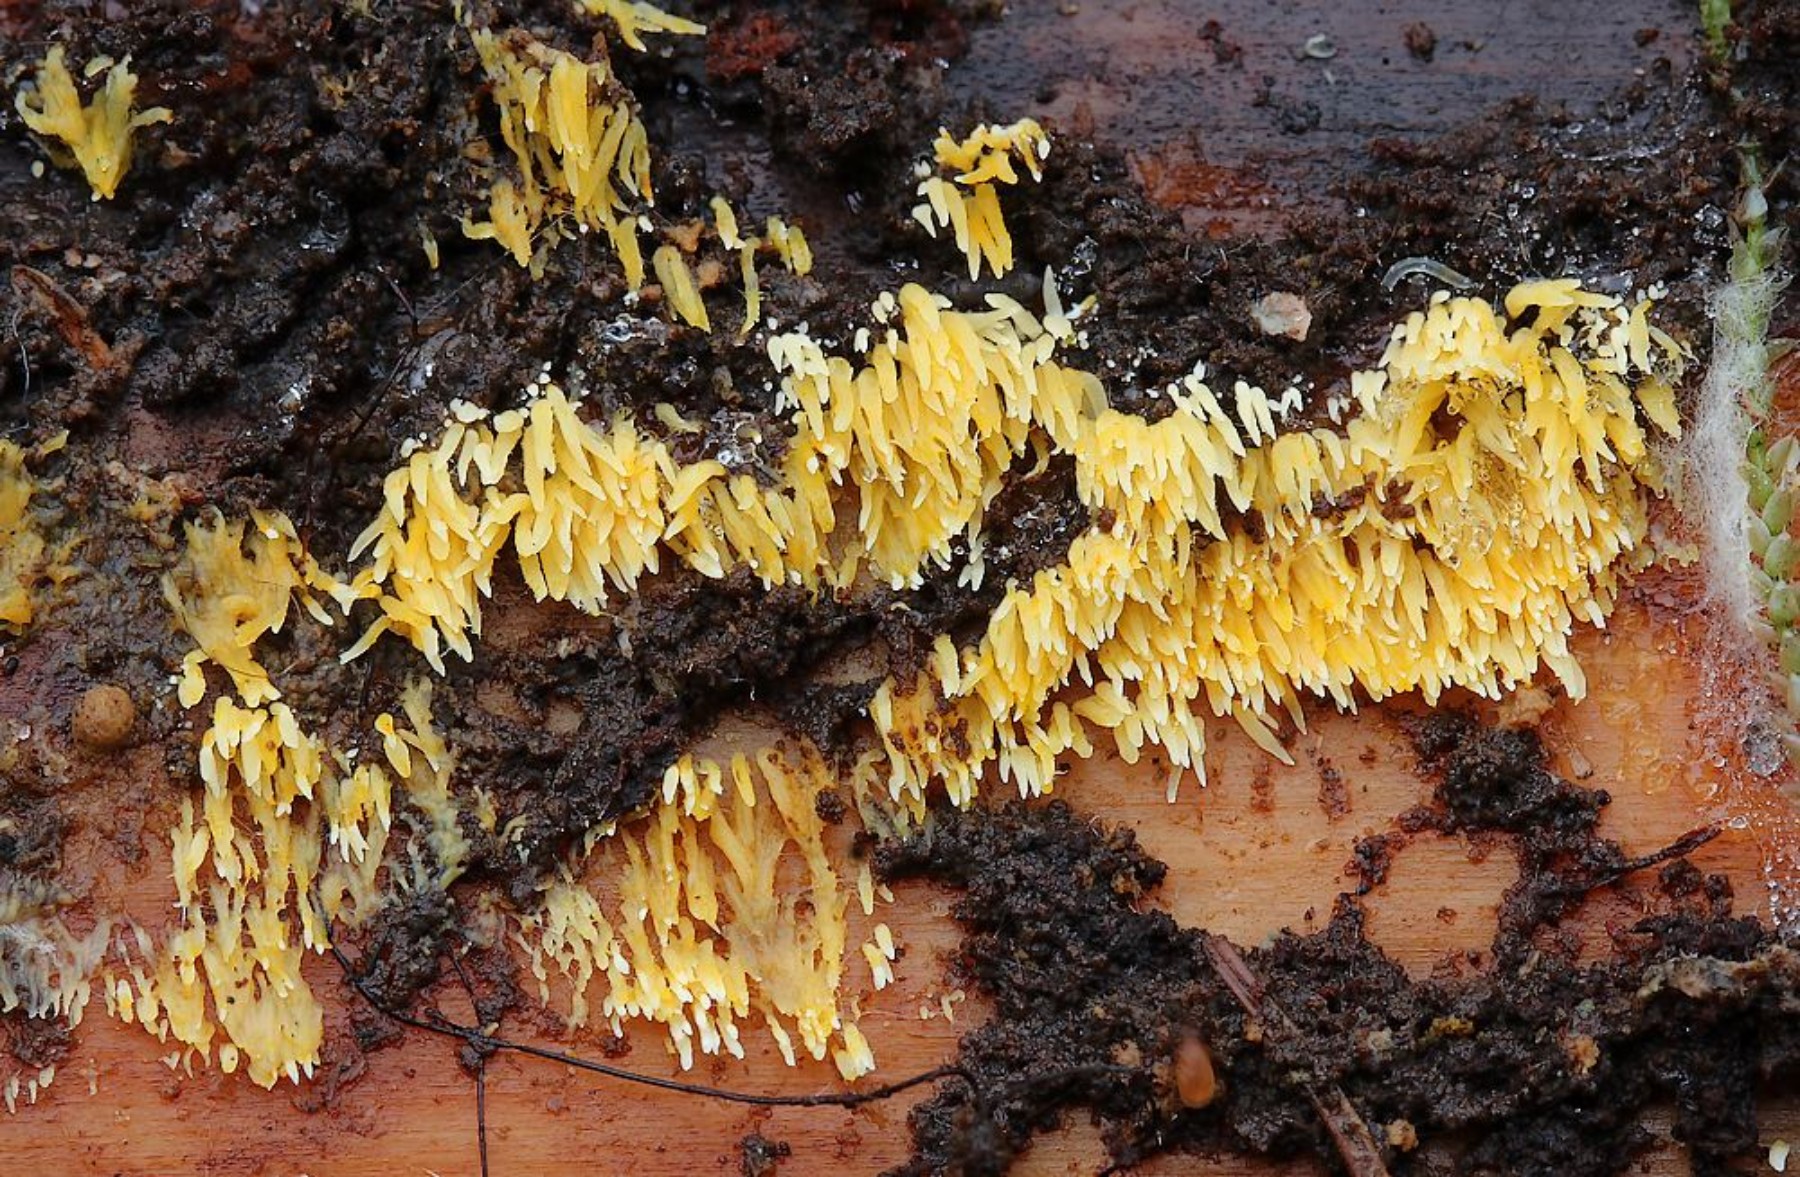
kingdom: Fungi
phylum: Basidiomycota
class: Agaricomycetes
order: Agaricales
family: Clavariaceae
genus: Mucronella
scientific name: Mucronella flava
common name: gul hængepig
